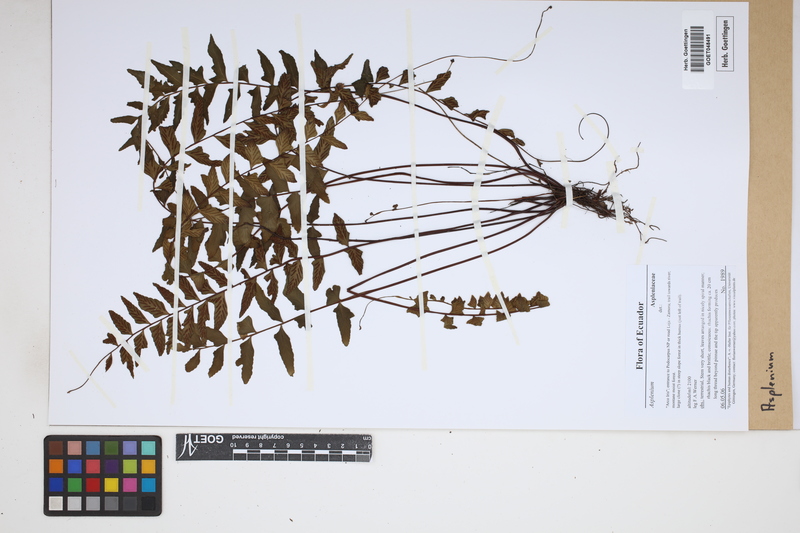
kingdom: Plantae
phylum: Tracheophyta
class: Polypodiopsida
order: Polypodiales
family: Aspleniaceae
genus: Asplenium
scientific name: Asplenium
